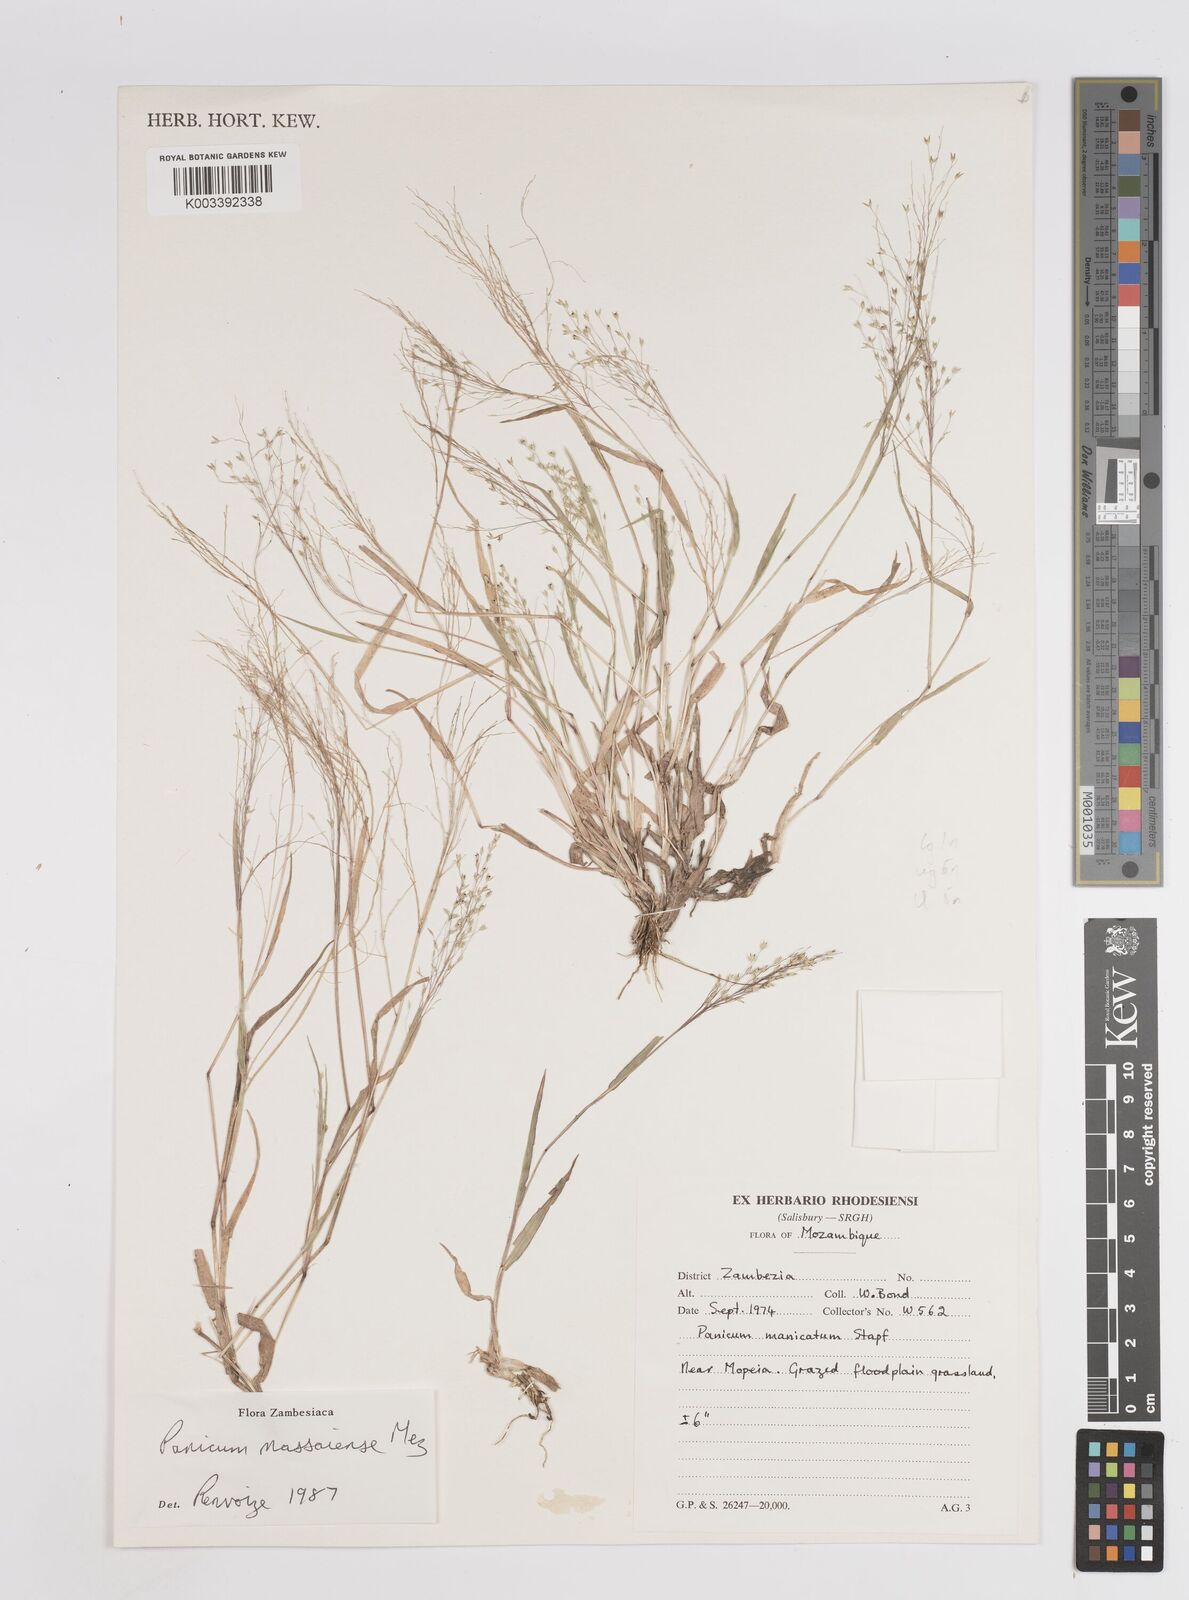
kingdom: Plantae
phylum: Tracheophyta
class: Liliopsida
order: Poales
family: Poaceae
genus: Panicum
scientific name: Panicum massaiense
